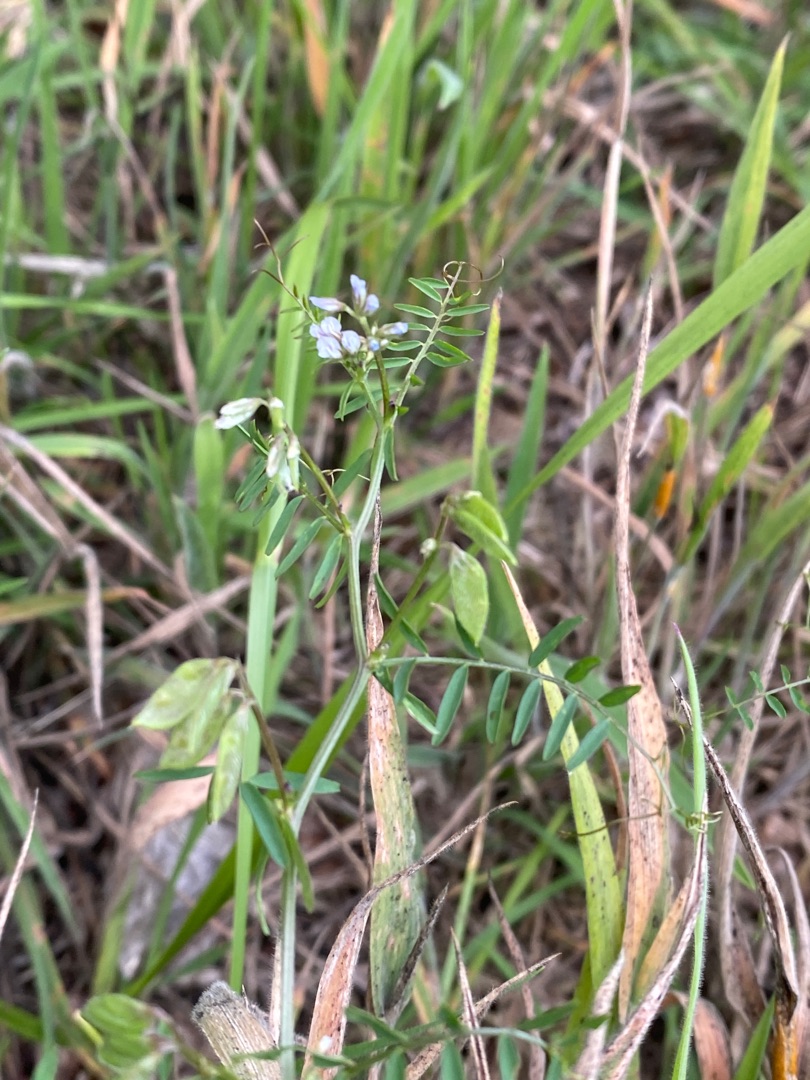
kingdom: Plantae
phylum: Tracheophyta
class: Magnoliopsida
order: Fabales
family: Fabaceae
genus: Vicia
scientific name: Vicia hirsuta
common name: Tofrøet vikke
